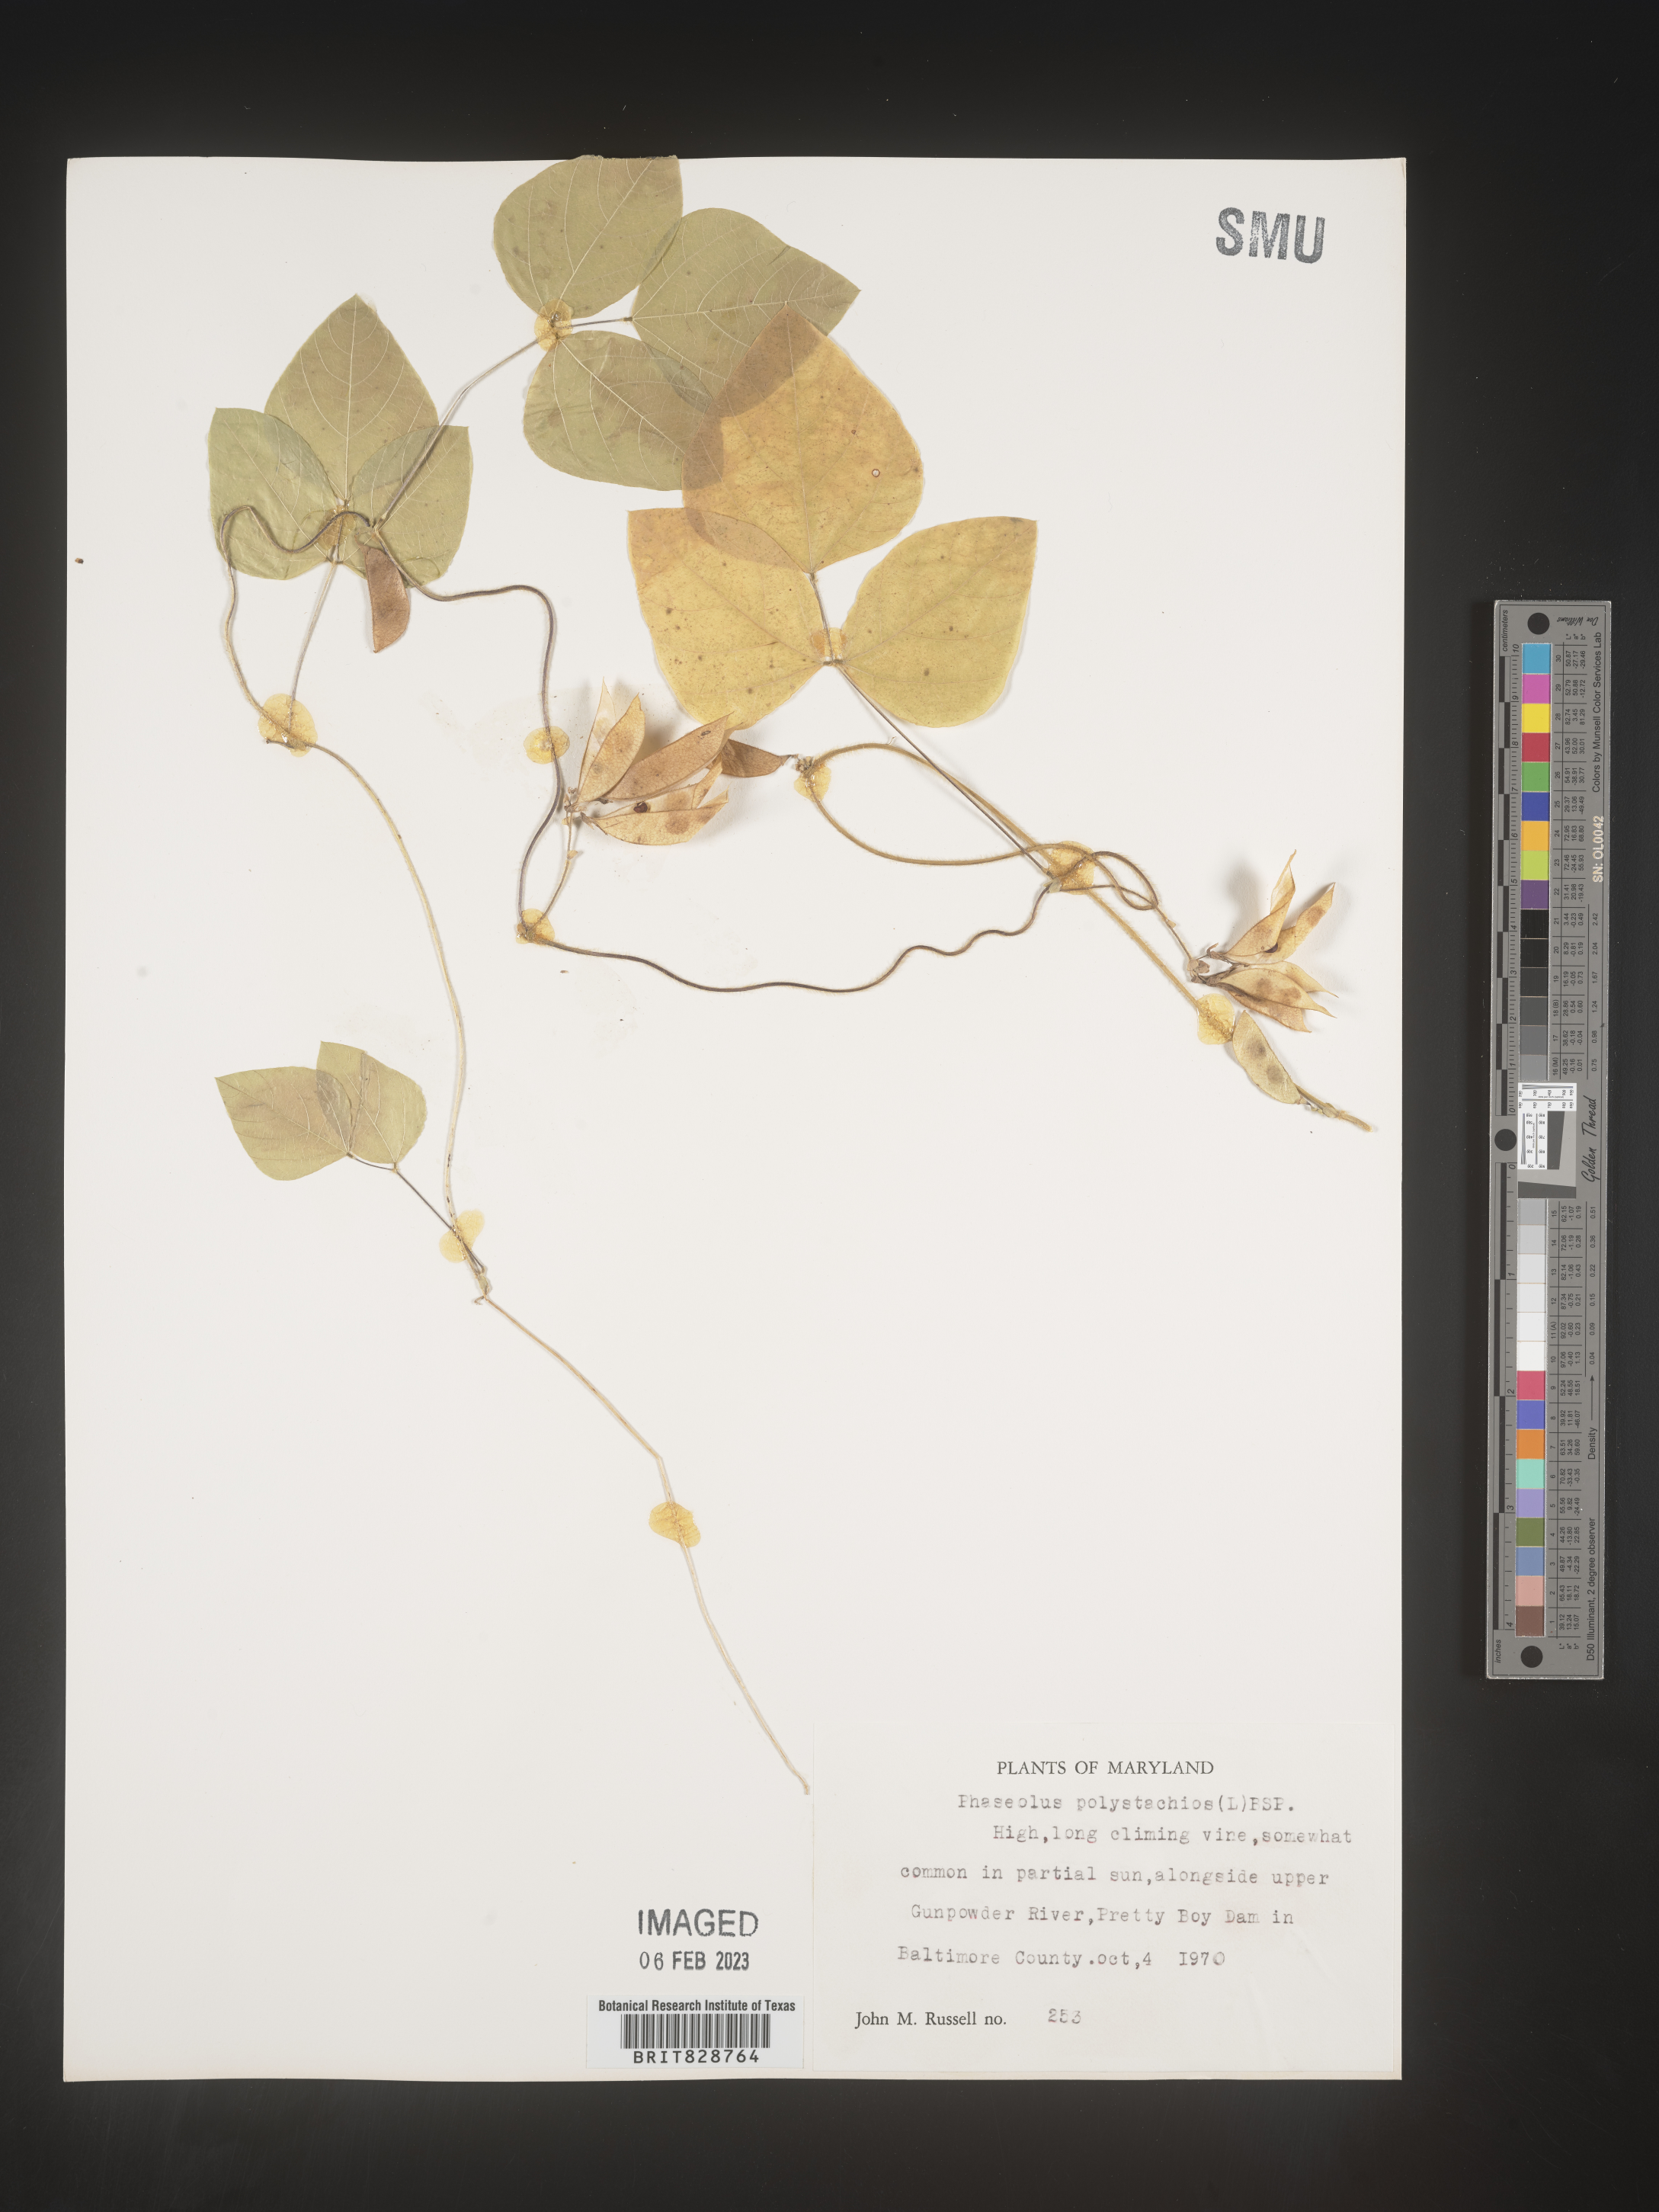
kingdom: Plantae
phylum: Tracheophyta
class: Magnoliopsida
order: Fabales
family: Fabaceae
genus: Phaseolus
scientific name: Phaseolus polystachios
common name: Thicket bean
